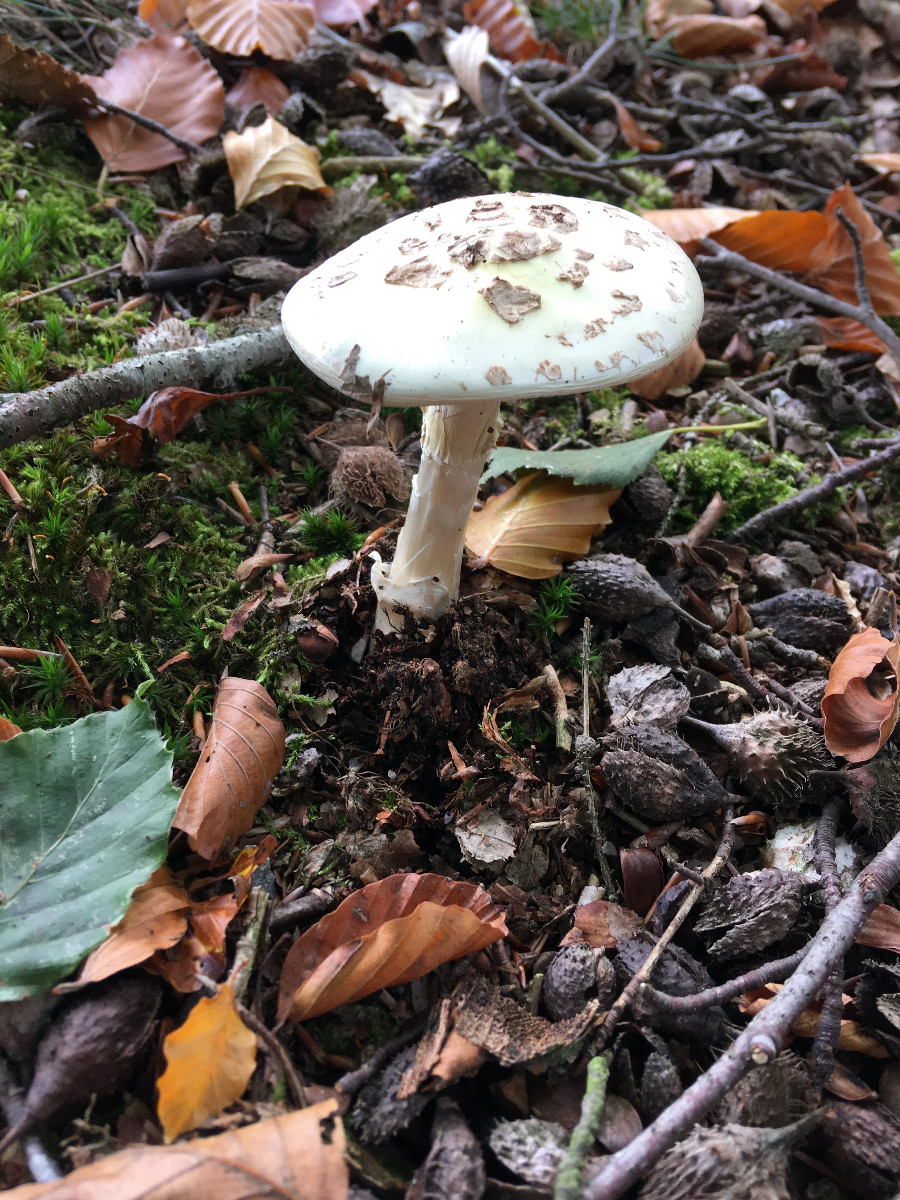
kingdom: Fungi
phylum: Basidiomycota
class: Agaricomycetes
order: Agaricales
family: Amanitaceae
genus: Amanita
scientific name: Amanita citrina
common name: kugleknoldet fluesvamp
